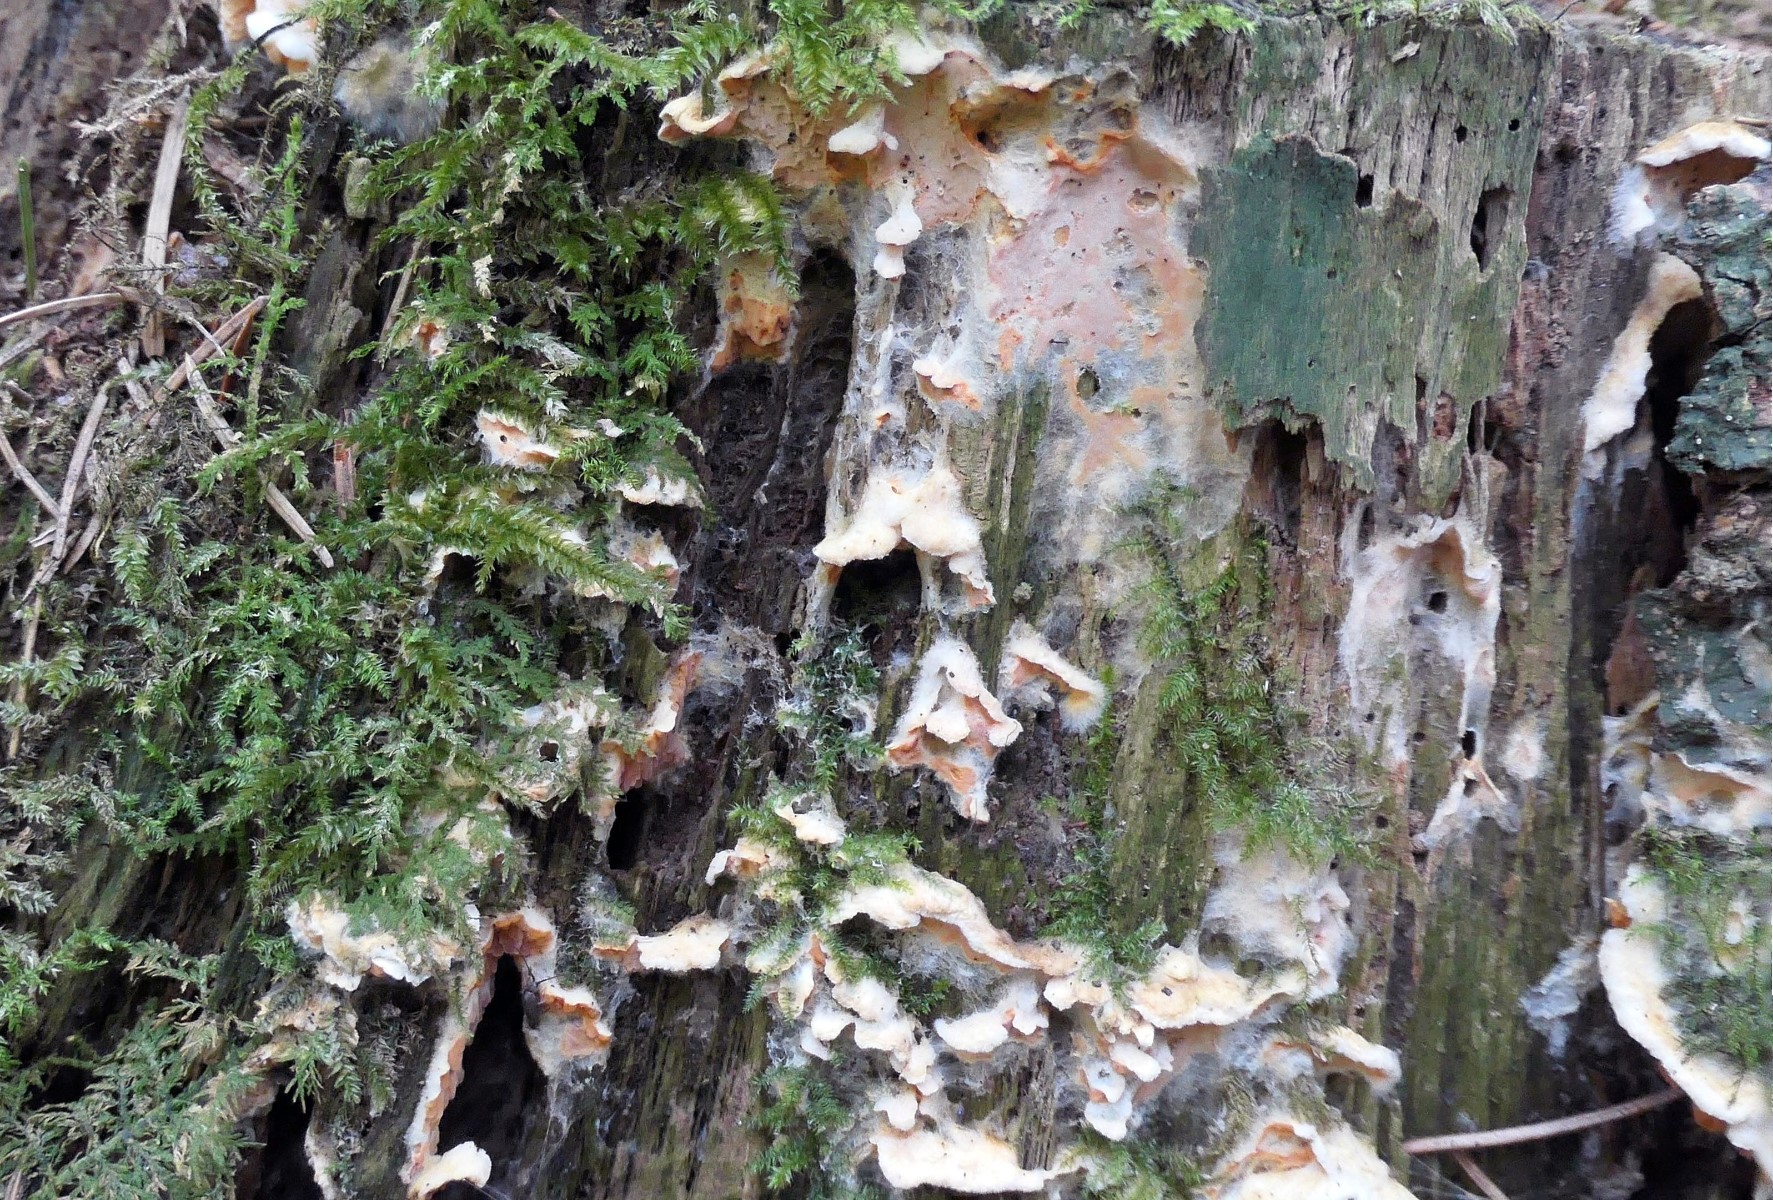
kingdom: Fungi
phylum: Basidiomycota
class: Agaricomycetes
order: Polyporales
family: Incrustoporiaceae
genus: Skeletocutis
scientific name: Skeletocutis amorpha
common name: orange krystalporesvamp
